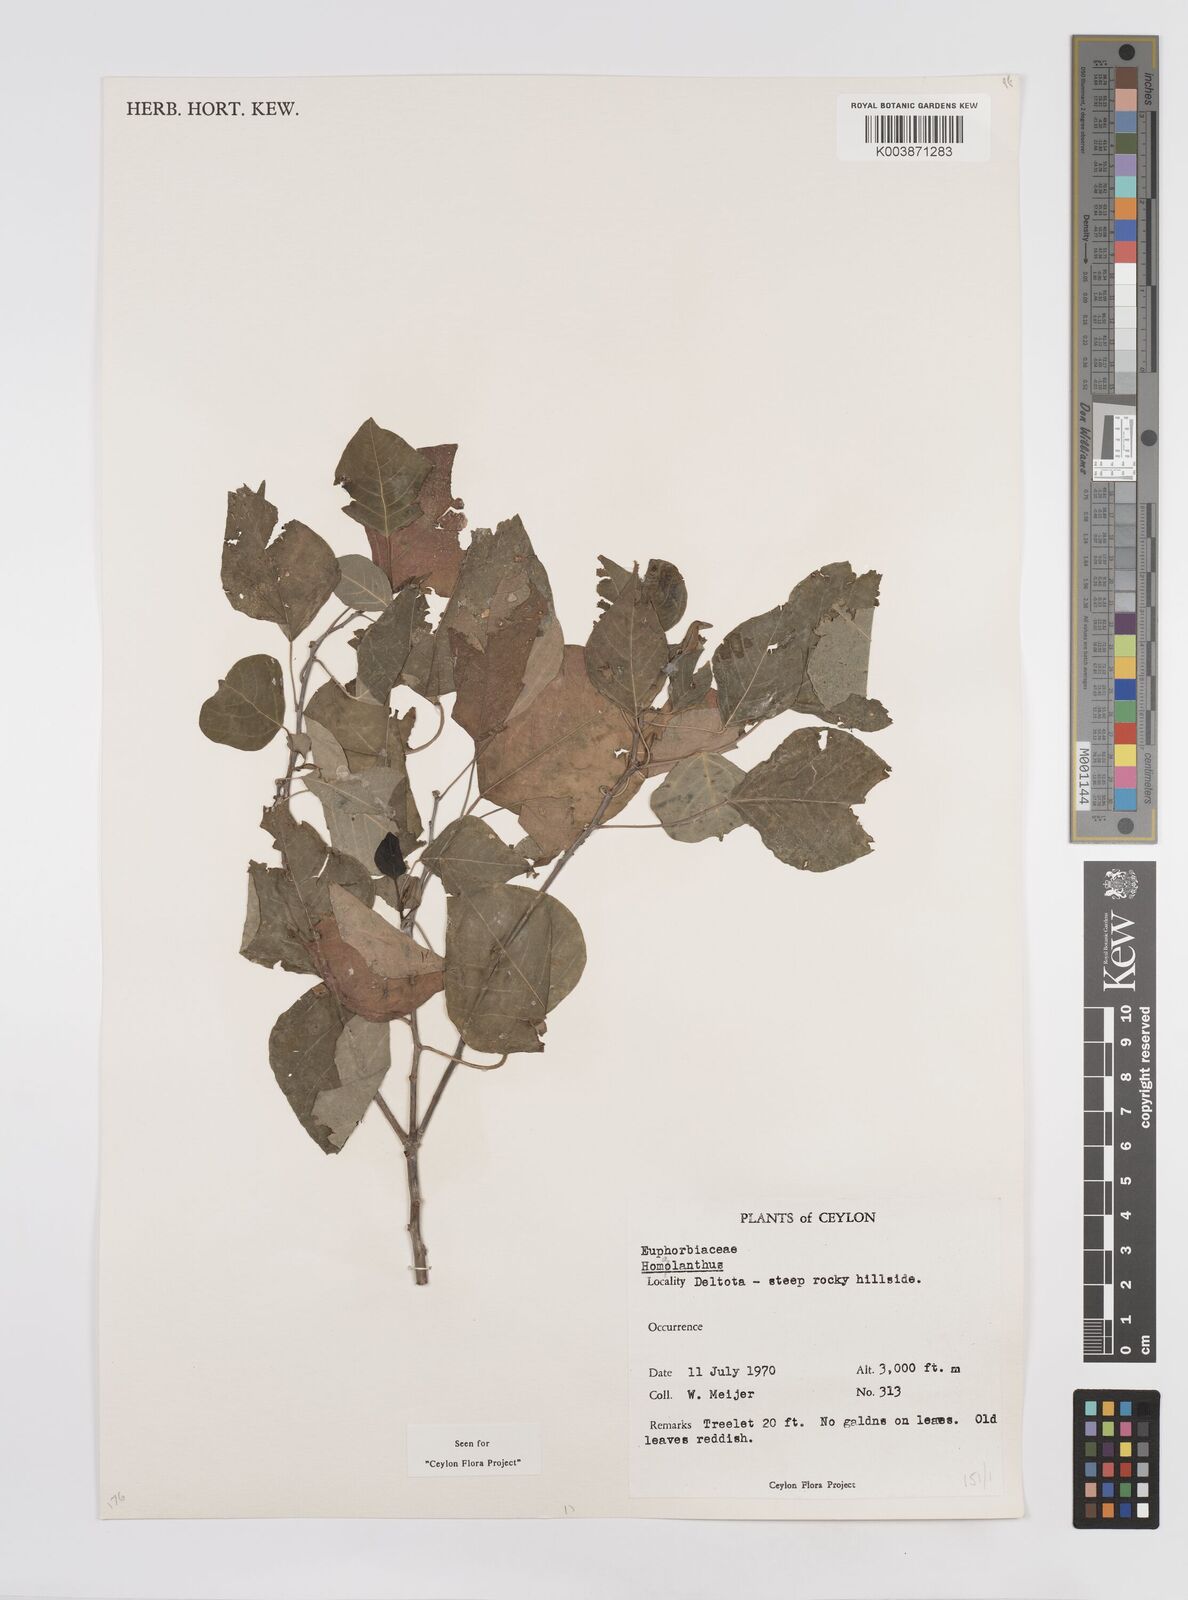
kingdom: Plantae
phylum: Tracheophyta
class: Magnoliopsida
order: Malpighiales
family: Euphorbiaceae
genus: Homalanthus
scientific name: Homalanthus populneus
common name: Spurge
